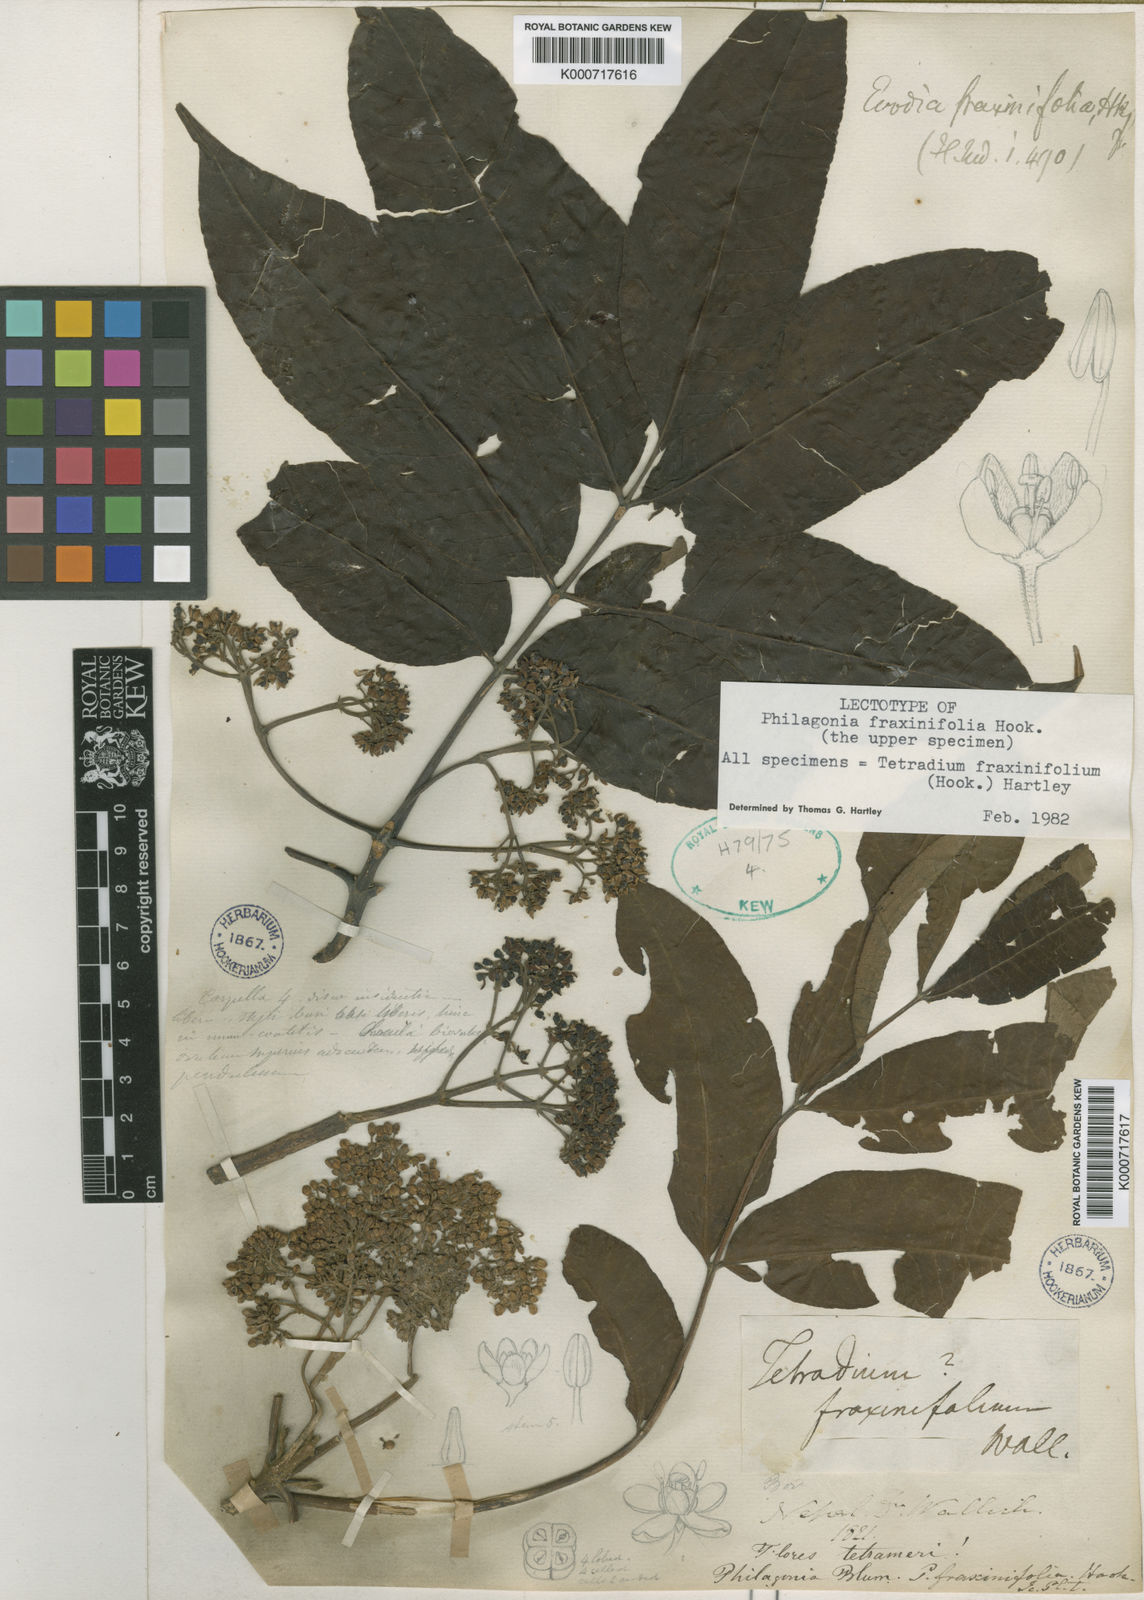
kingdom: Plantae
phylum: Tracheophyta
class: Magnoliopsida
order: Sapindales
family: Rutaceae
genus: Tetradium
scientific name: Tetradium fraxinifolium
